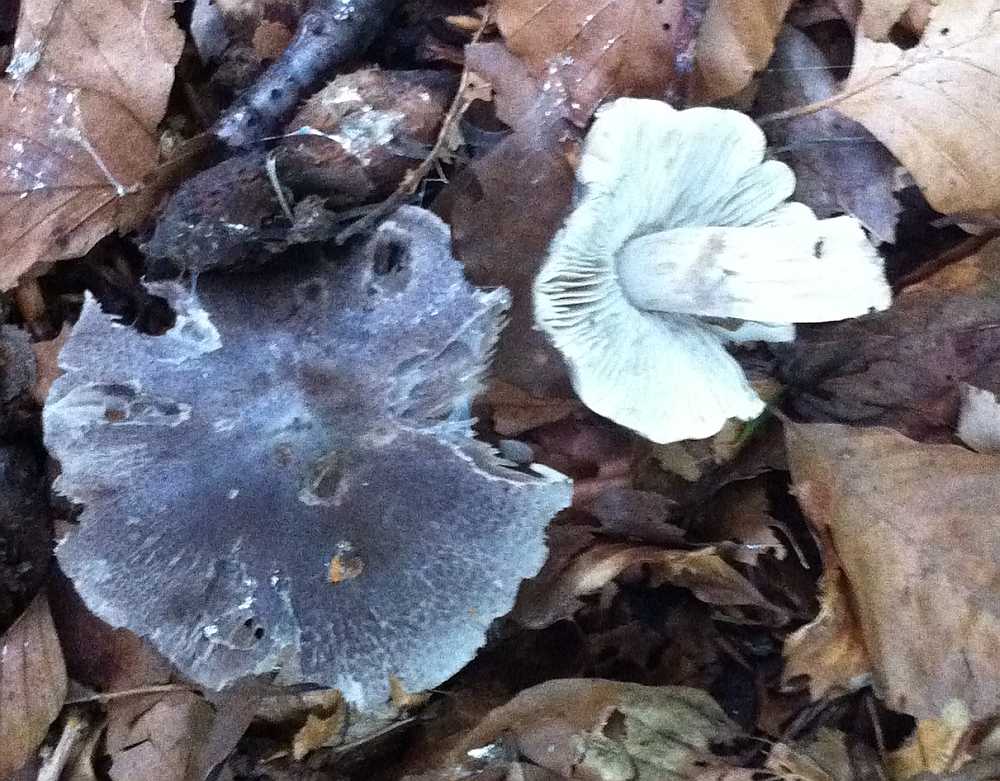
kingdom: Fungi
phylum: Basidiomycota
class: Agaricomycetes
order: Agaricales
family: Tricholomataceae
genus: Tricholoma
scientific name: Tricholoma sciodes
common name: stribet ridderhat
